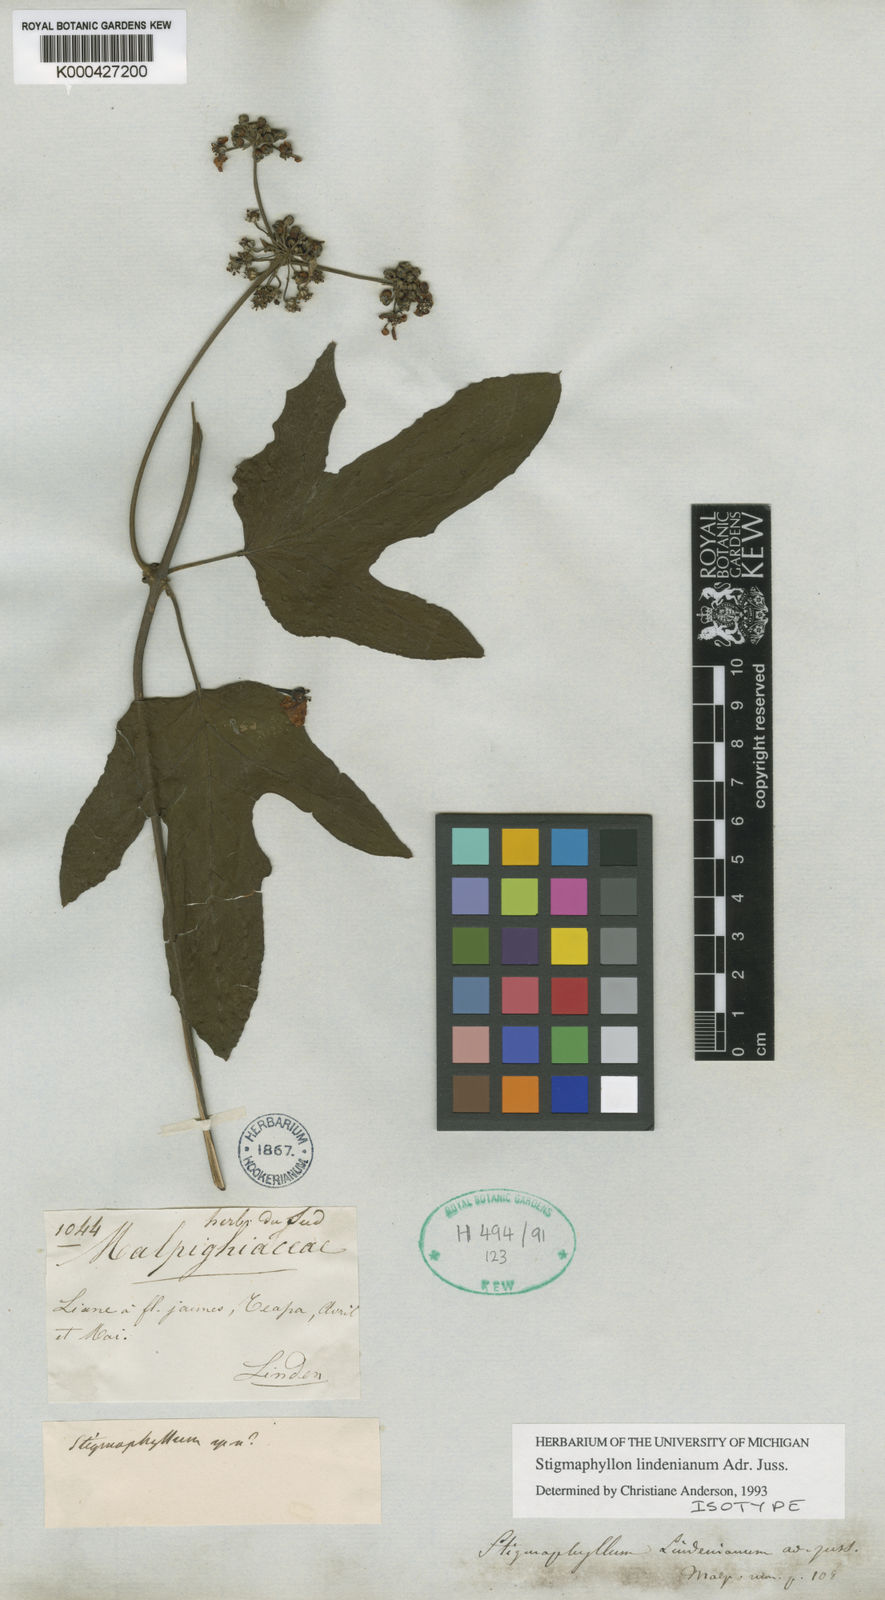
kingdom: Plantae
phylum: Tracheophyta
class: Magnoliopsida
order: Malpighiales
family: Malpighiaceae
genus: Stigmaphyllon
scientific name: Stigmaphyllon lindenianum
